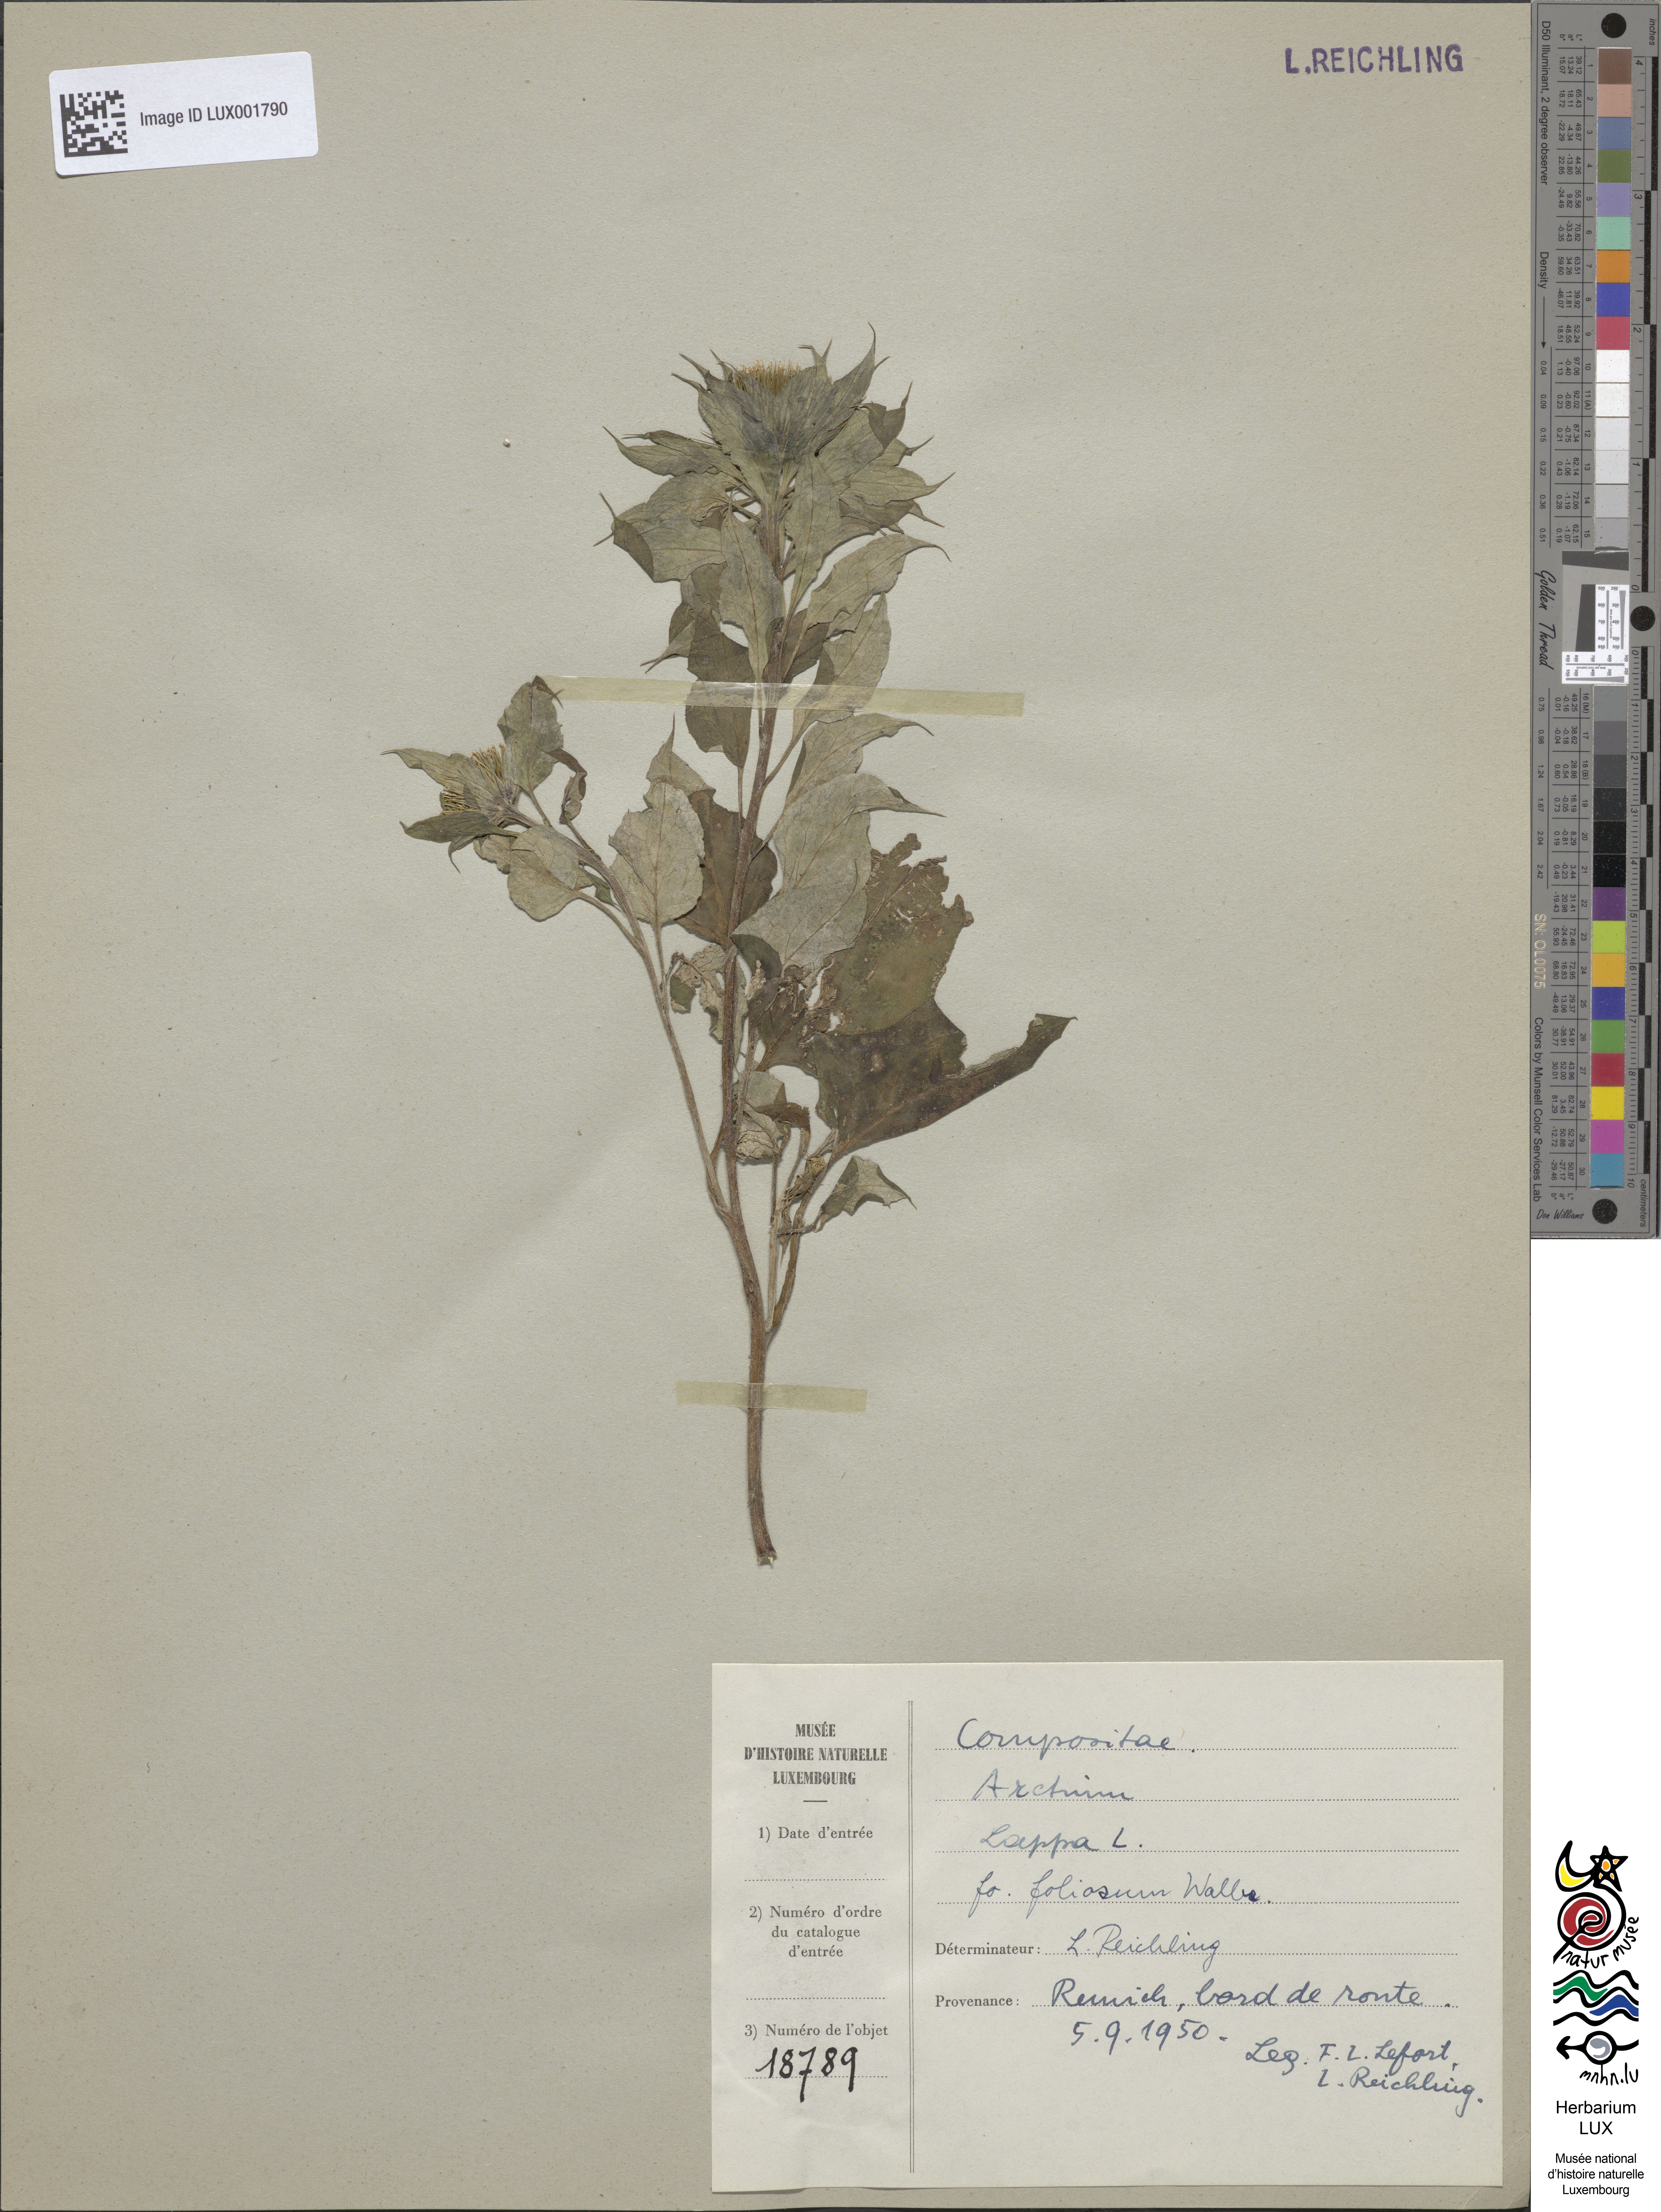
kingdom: Plantae
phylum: Tracheophyta
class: Magnoliopsida
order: Asterales
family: Asteraceae
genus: Arctium
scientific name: Arctium lappa
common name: Greater burdock
